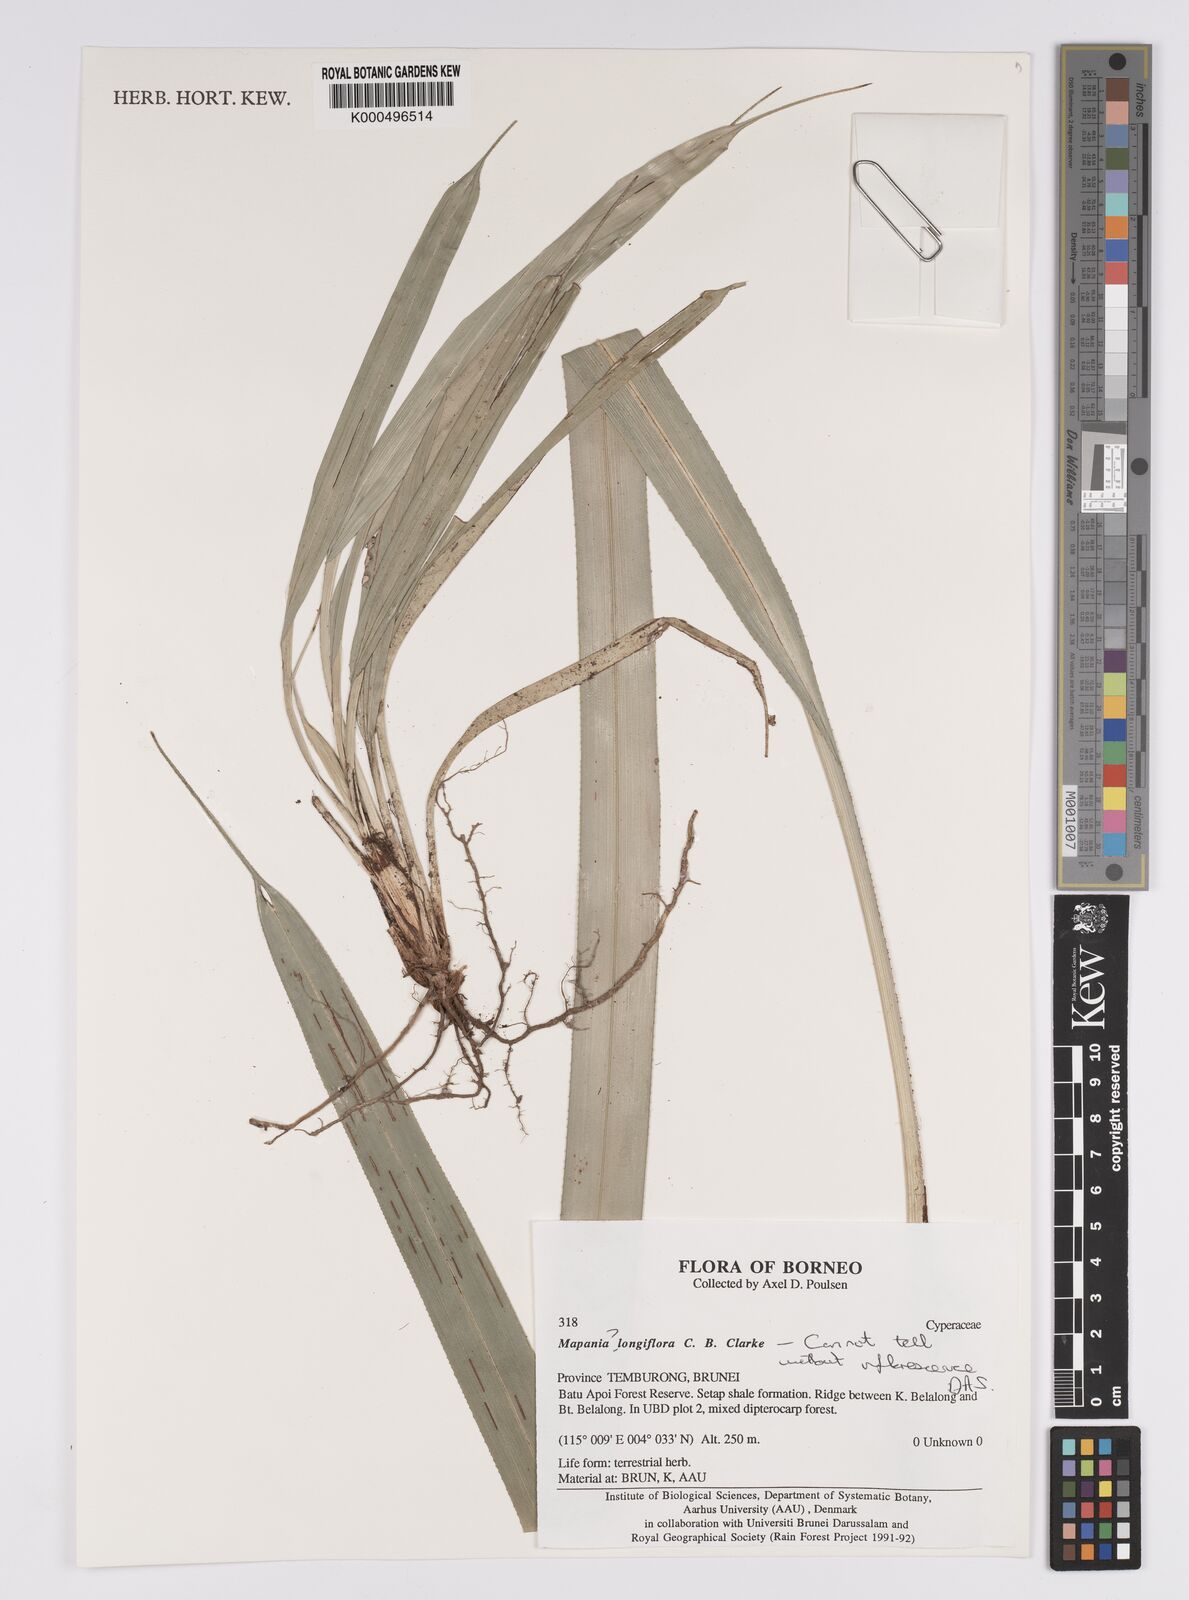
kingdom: Plantae
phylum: Tracheophyta
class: Liliopsida
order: Poales
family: Cyperaceae
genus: Mapania
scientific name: Mapania longiflora
